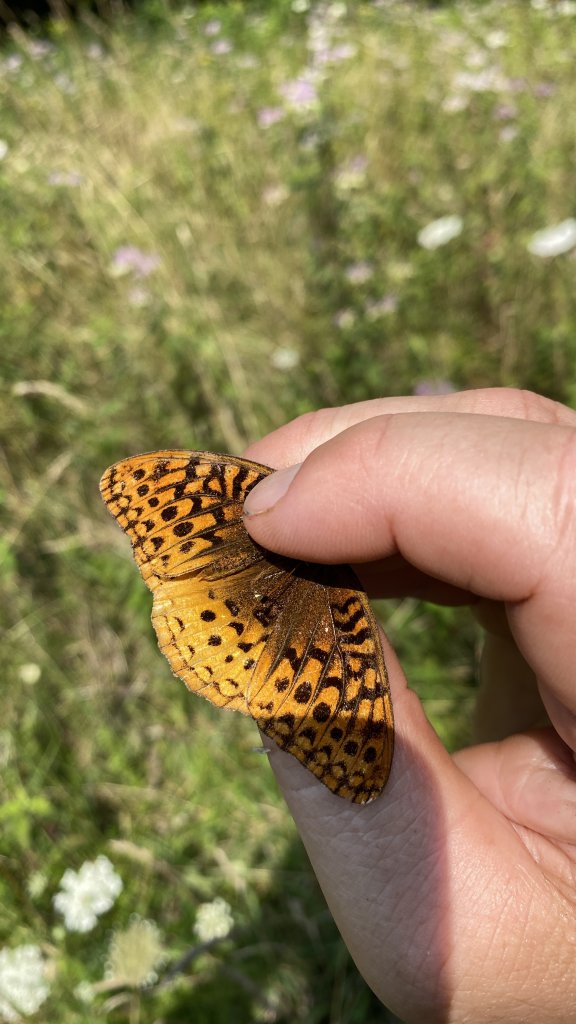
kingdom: Animalia
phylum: Arthropoda
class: Insecta
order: Lepidoptera
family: Nymphalidae
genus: Speyeria
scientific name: Speyeria cybele
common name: Great Spangled Fritillary
